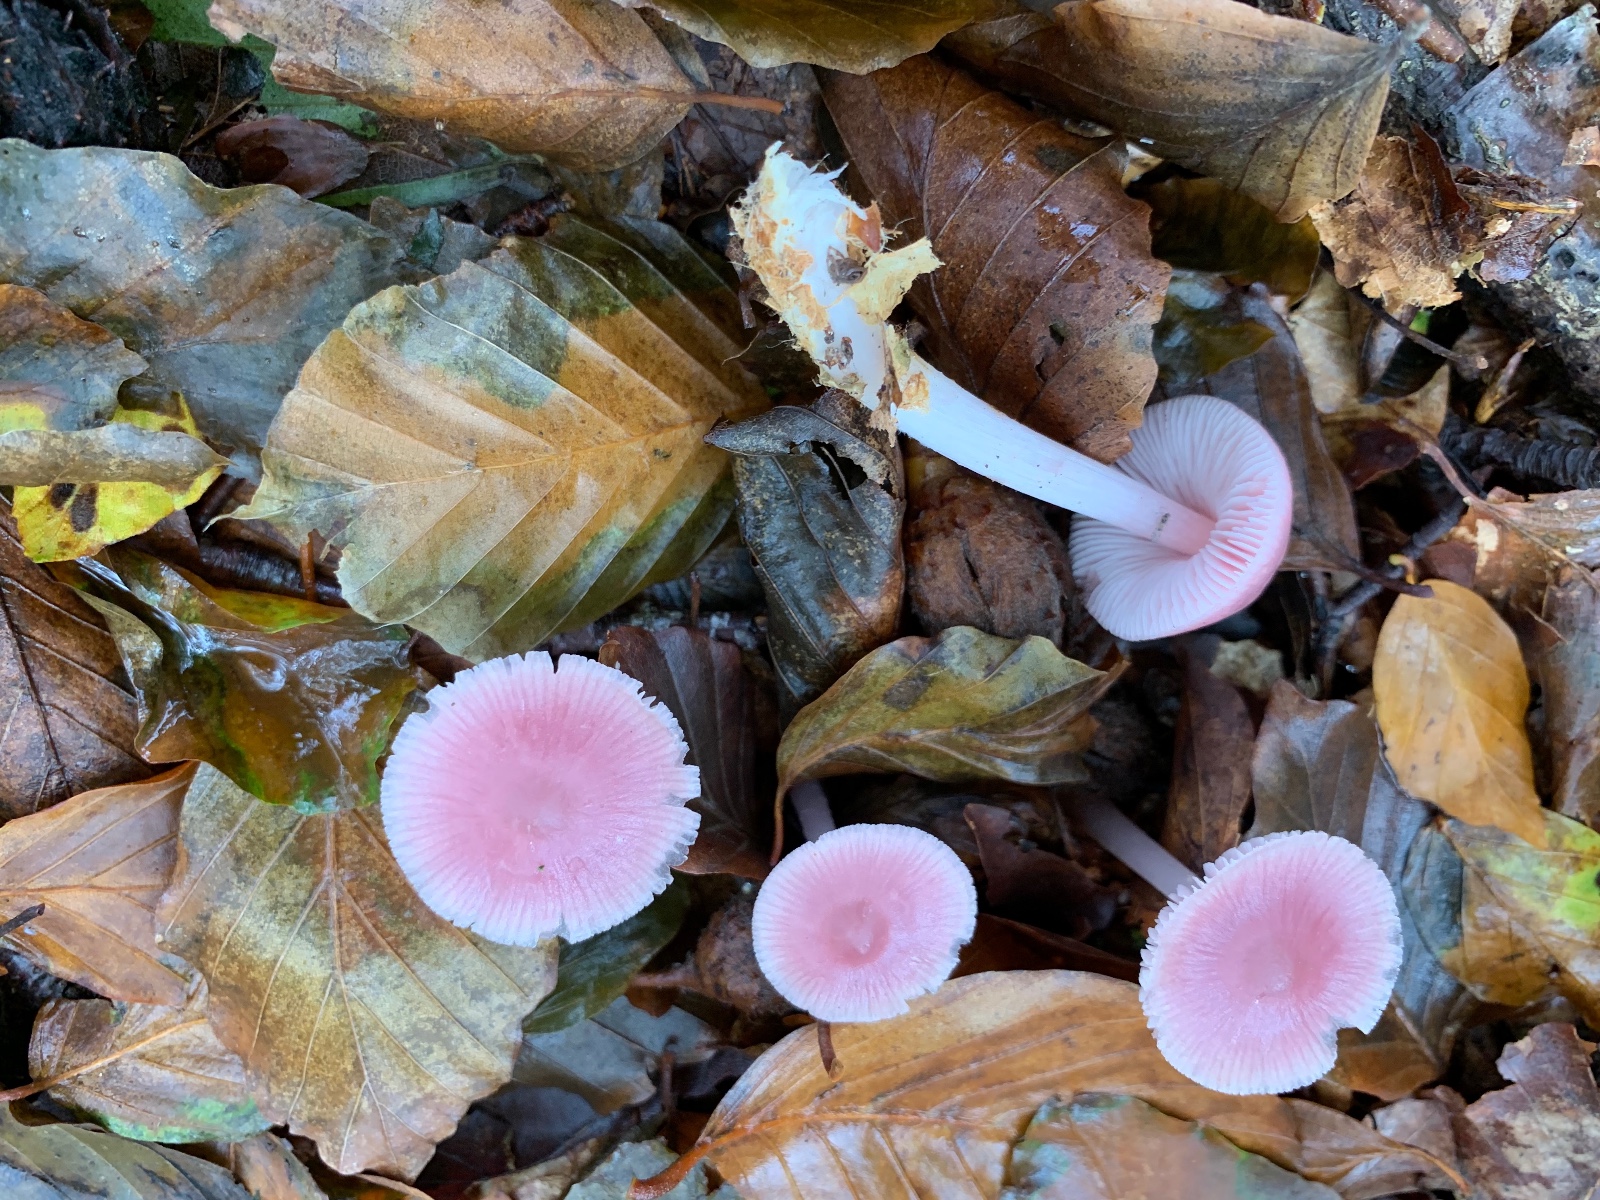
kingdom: Fungi
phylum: Basidiomycota
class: Agaricomycetes
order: Agaricales
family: Mycenaceae
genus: Mycena
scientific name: Mycena rosea
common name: rosa huesvamp
